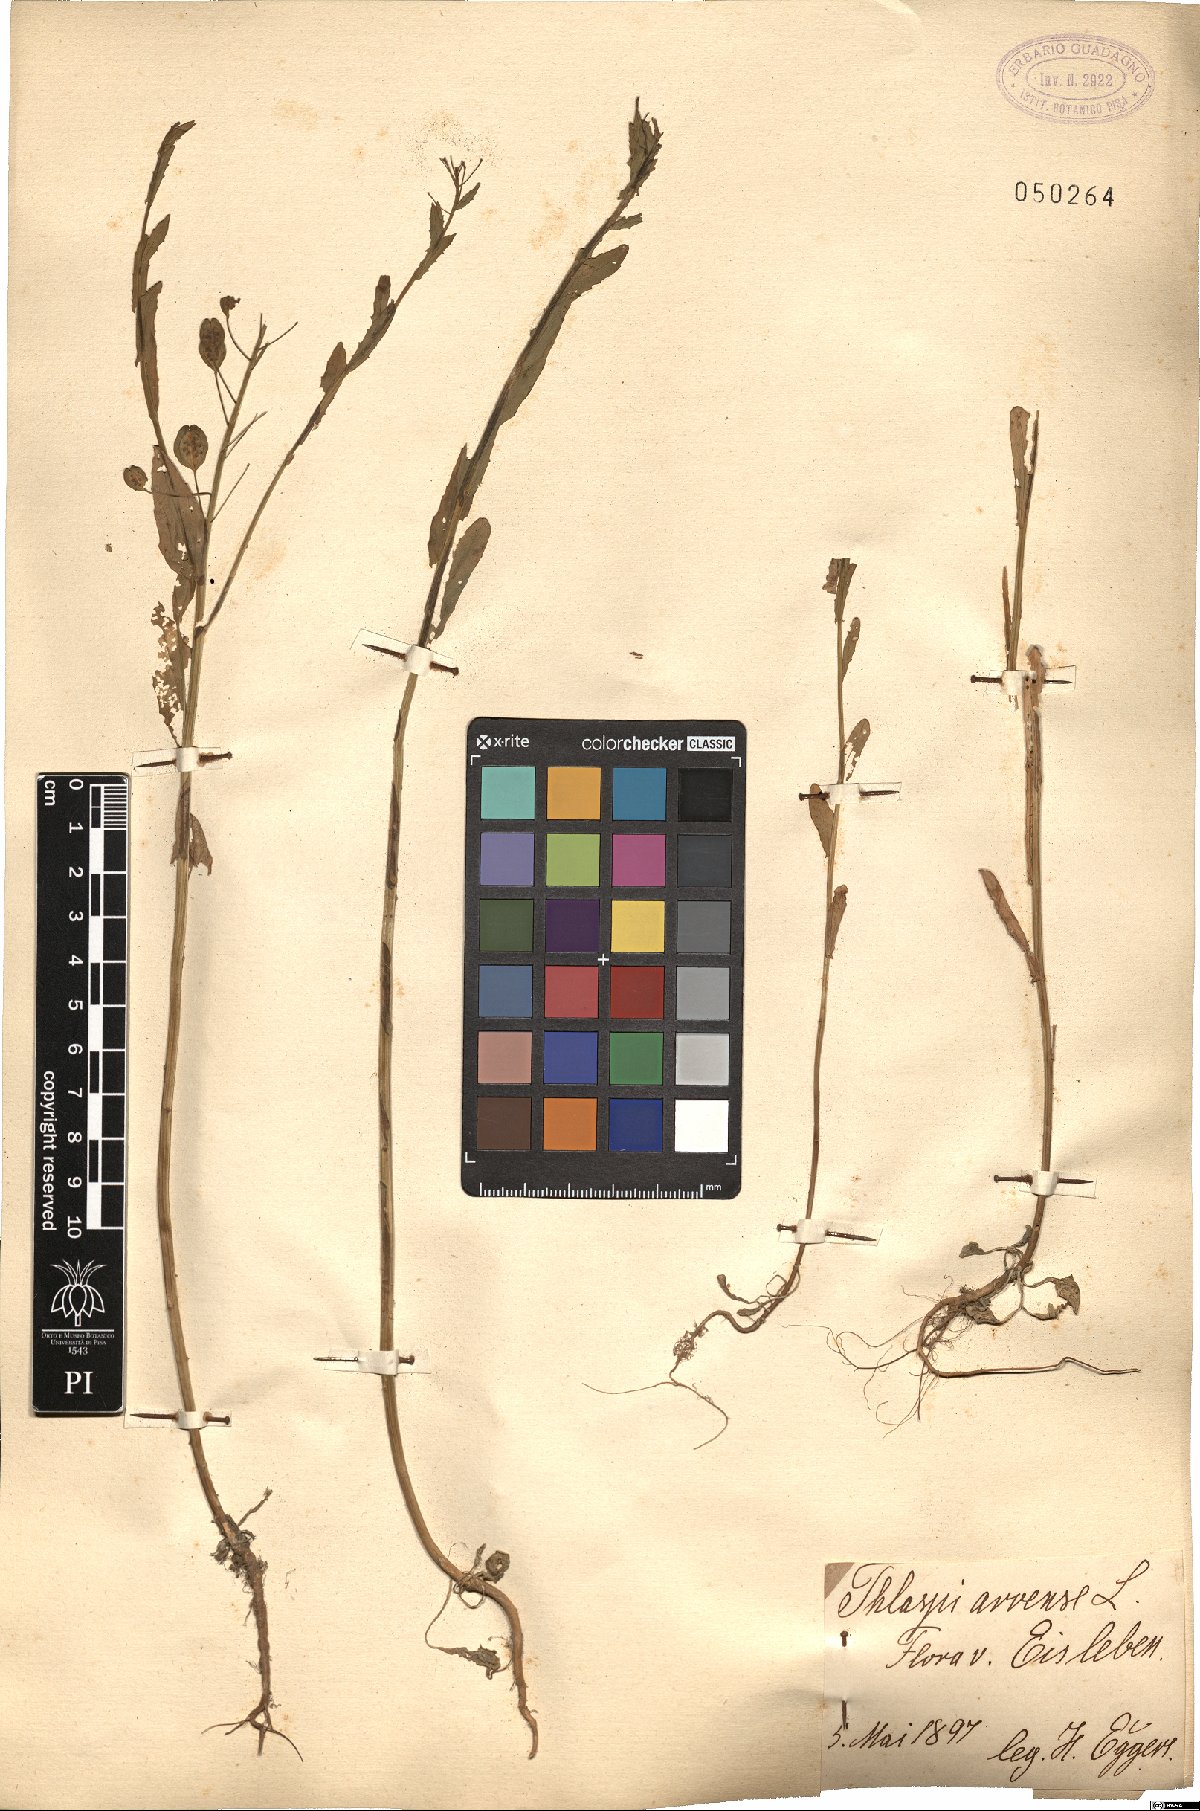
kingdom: Plantae
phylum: Tracheophyta
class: Magnoliopsida
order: Brassicales
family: Brassicaceae
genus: Thlaspi
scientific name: Thlaspi arvense
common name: Field pennycress
